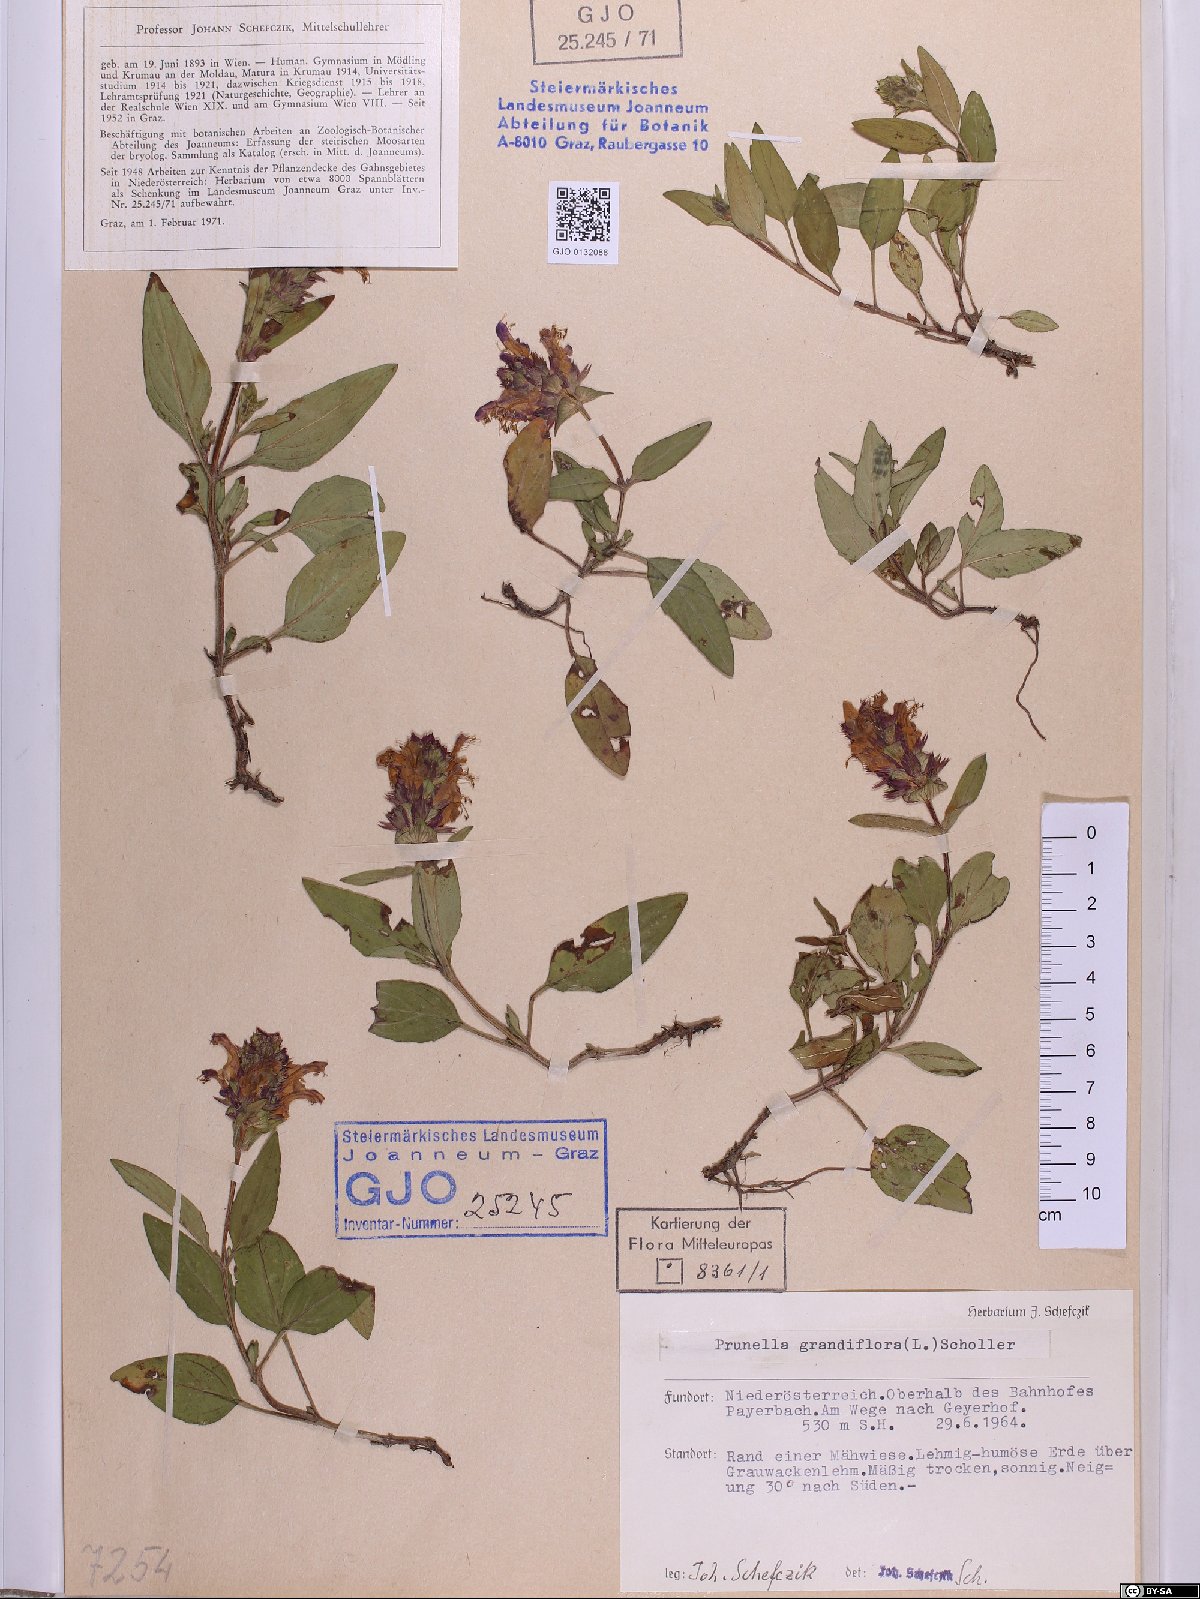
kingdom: Plantae
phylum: Tracheophyta
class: Magnoliopsida
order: Lamiales
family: Lamiaceae
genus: Prunella
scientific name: Prunella grandiflora
